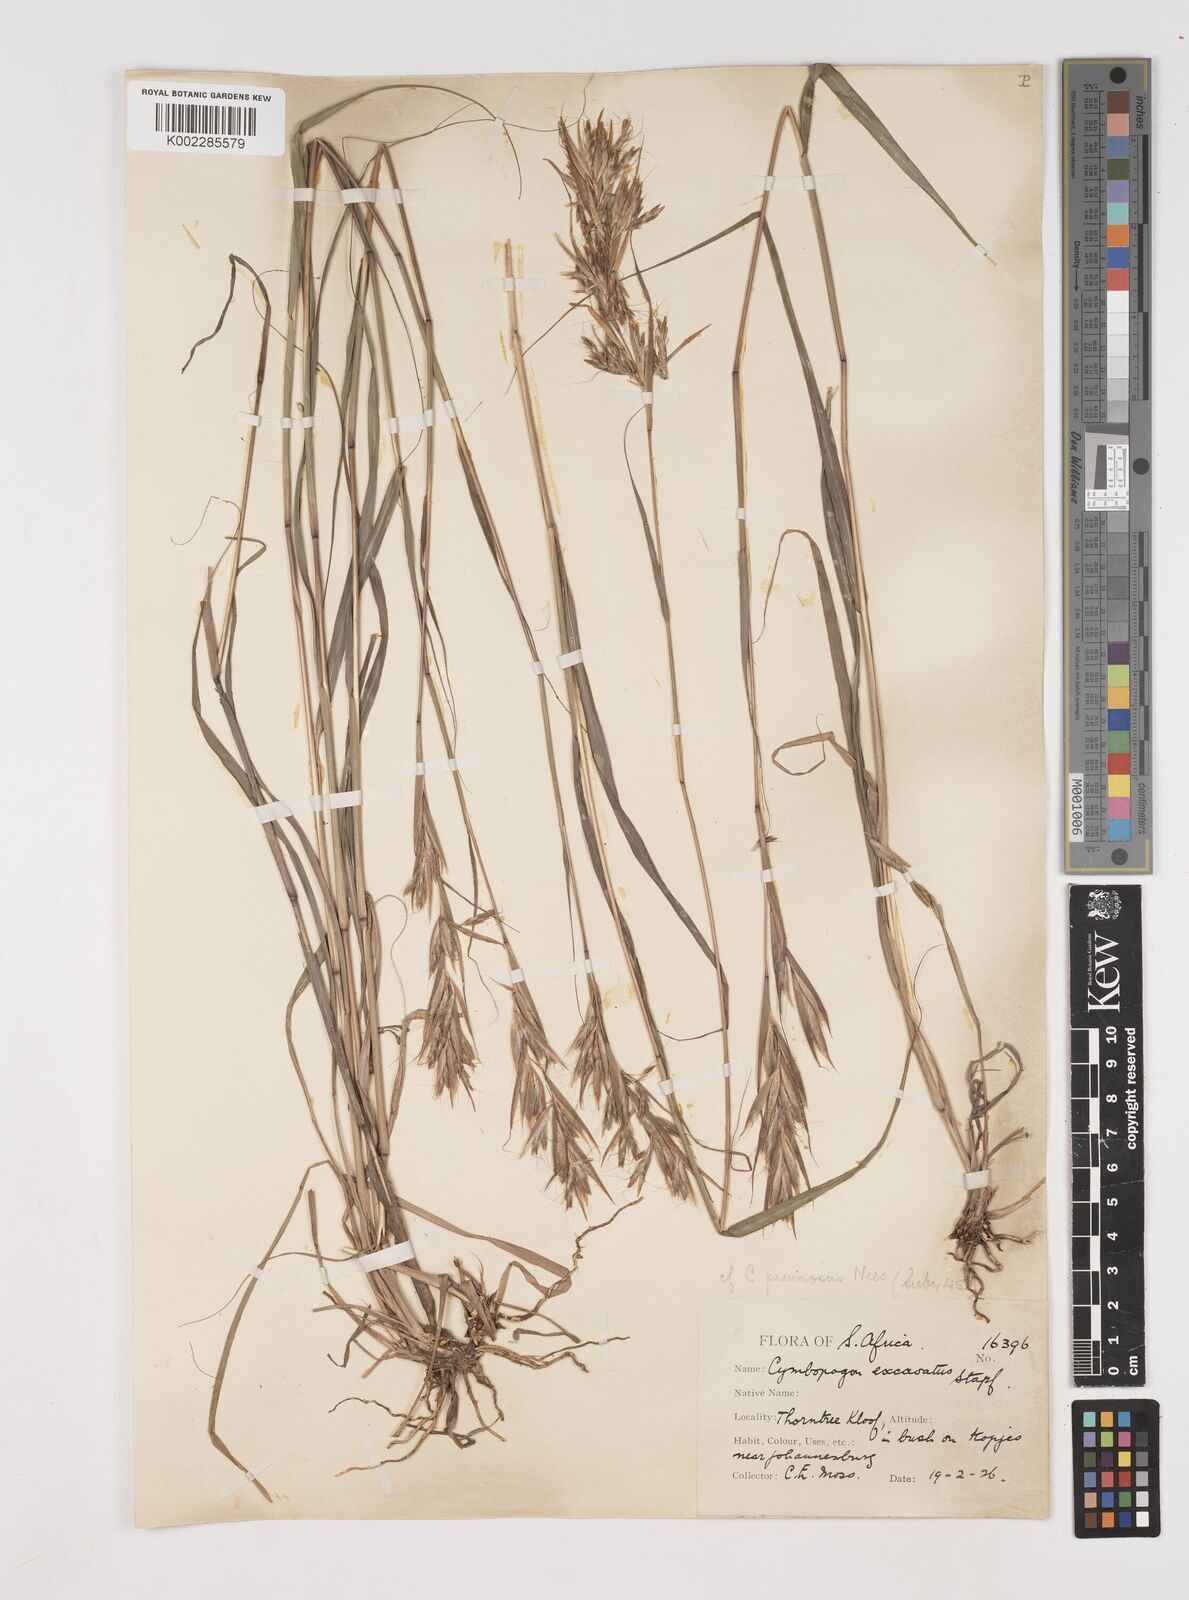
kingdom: Plantae
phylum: Tracheophyta
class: Liliopsida
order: Poales
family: Poaceae
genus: Cymbopogon
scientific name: Cymbopogon caesius
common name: Kachi grass
